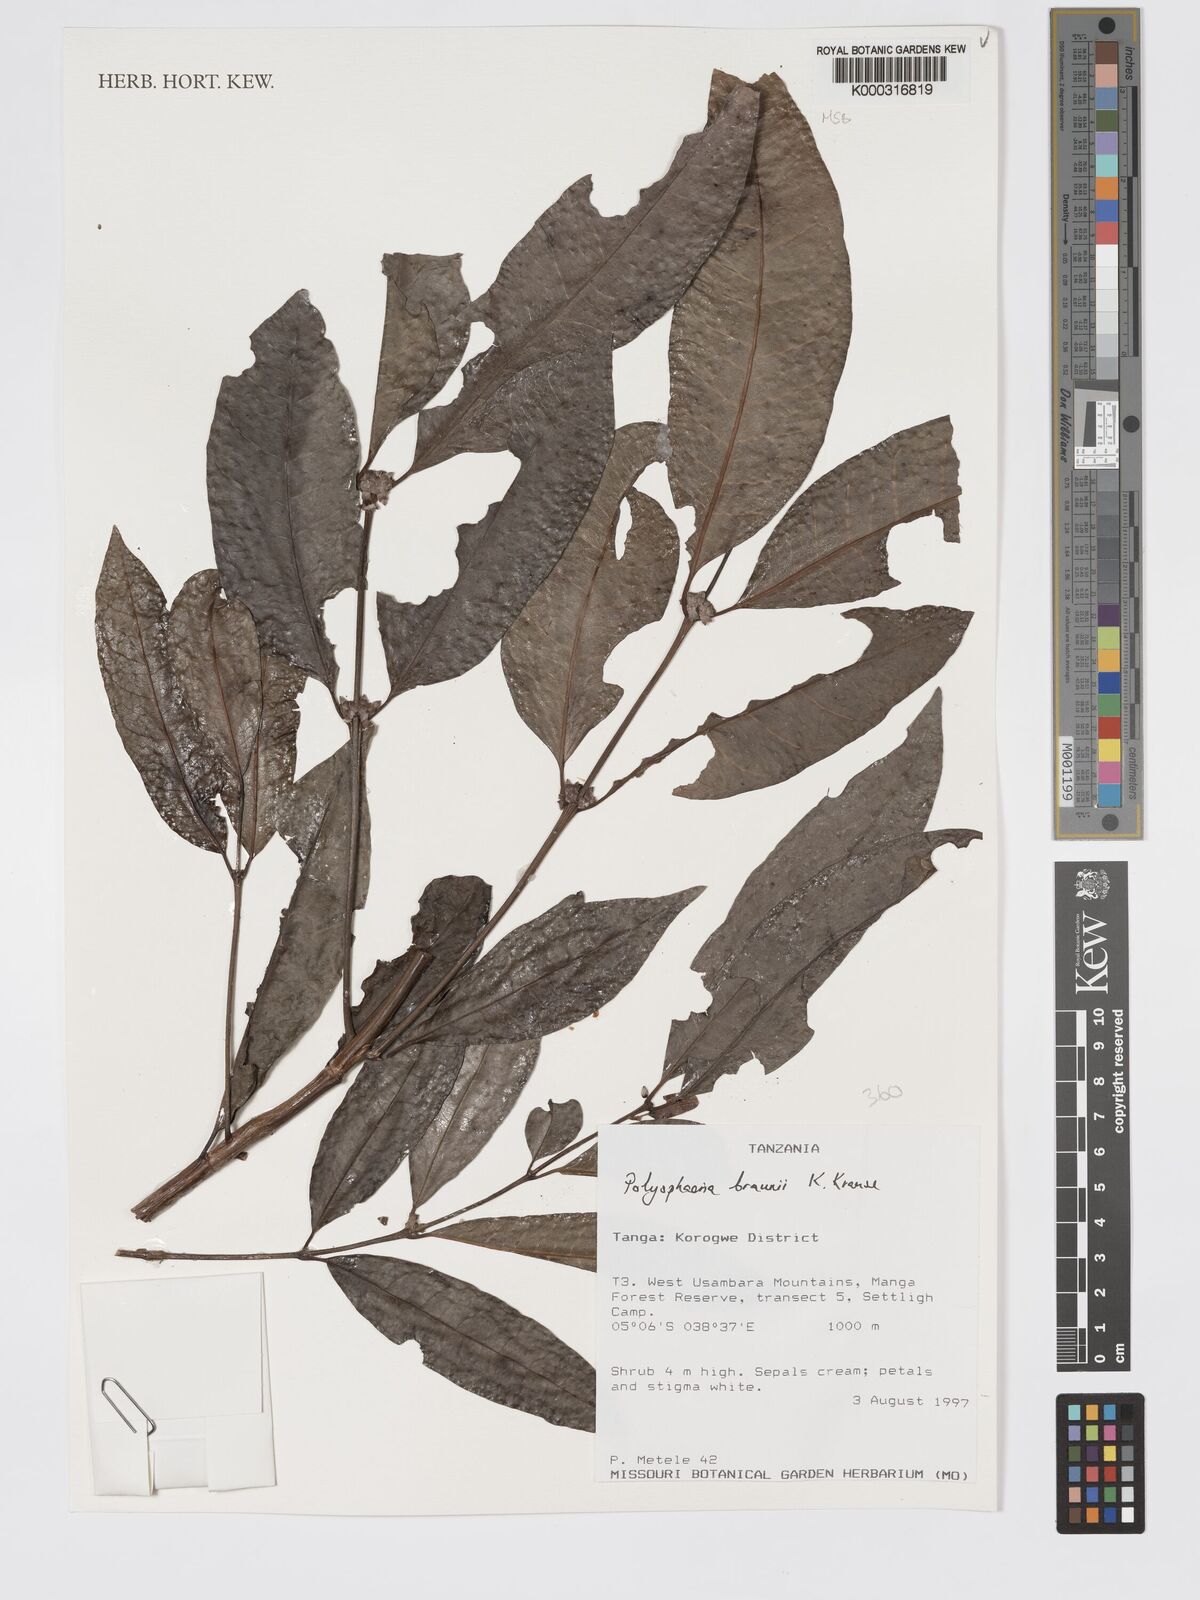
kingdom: Plantae
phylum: Tracheophyta
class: Magnoliopsida
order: Gentianales
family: Rubiaceae
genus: Polysphaeria
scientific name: Polysphaeria braunii
